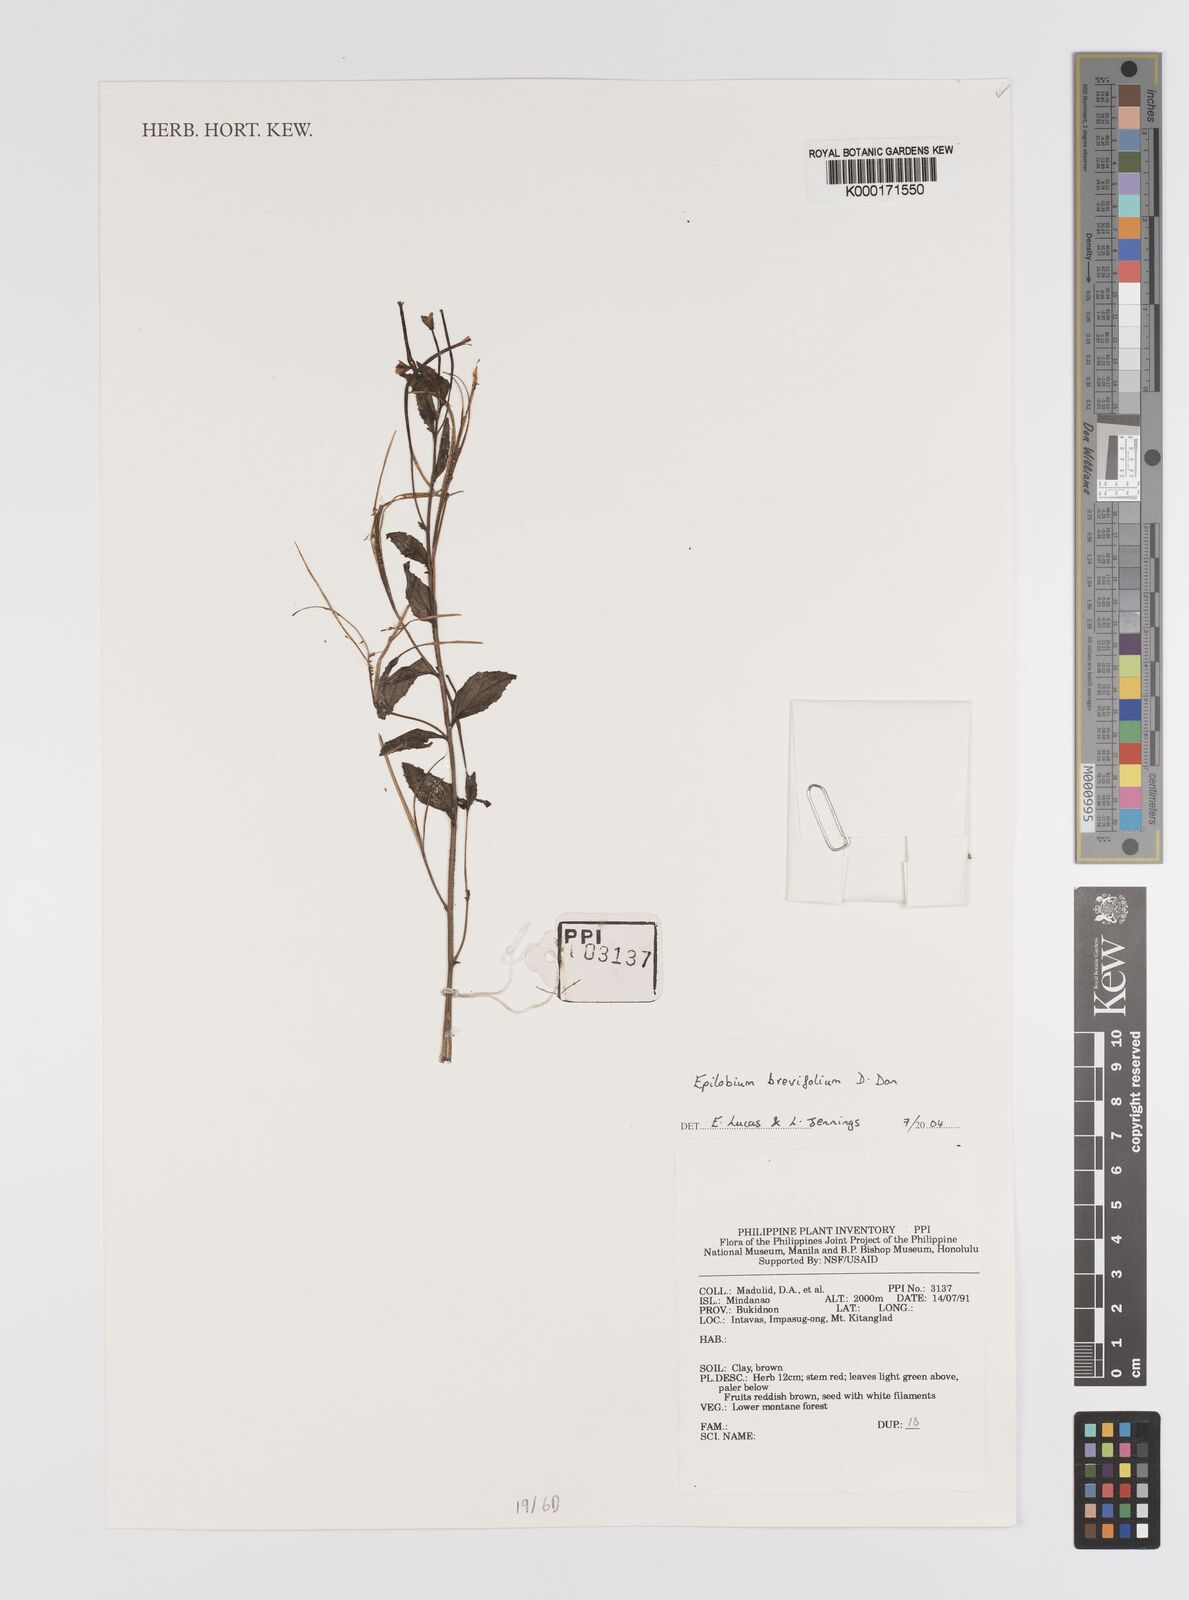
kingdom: Plantae
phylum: Tracheophyta
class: Magnoliopsida
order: Myrtales
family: Onagraceae
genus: Epilobium
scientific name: Epilobium brevifolium
